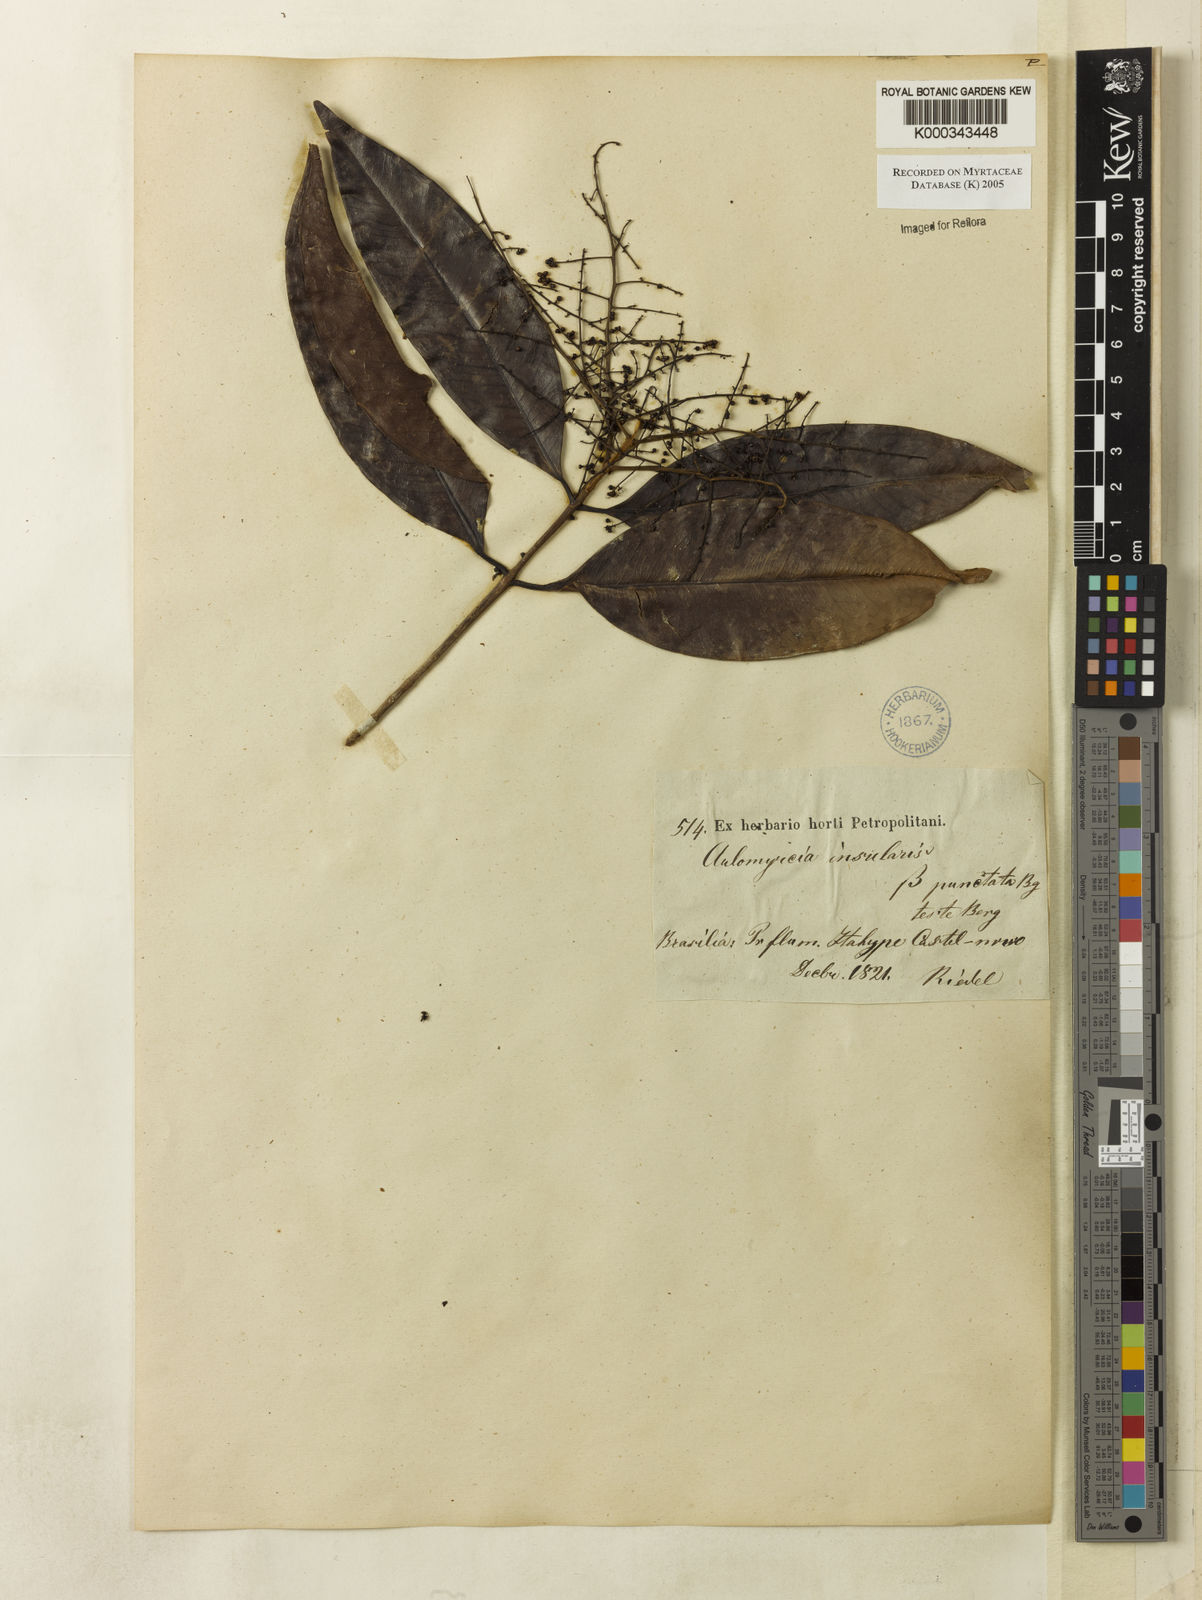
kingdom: Plantae
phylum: Tracheophyta
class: Magnoliopsida
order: Myrtales
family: Myrtaceae
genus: Myrcia
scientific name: Myrcia insularis
